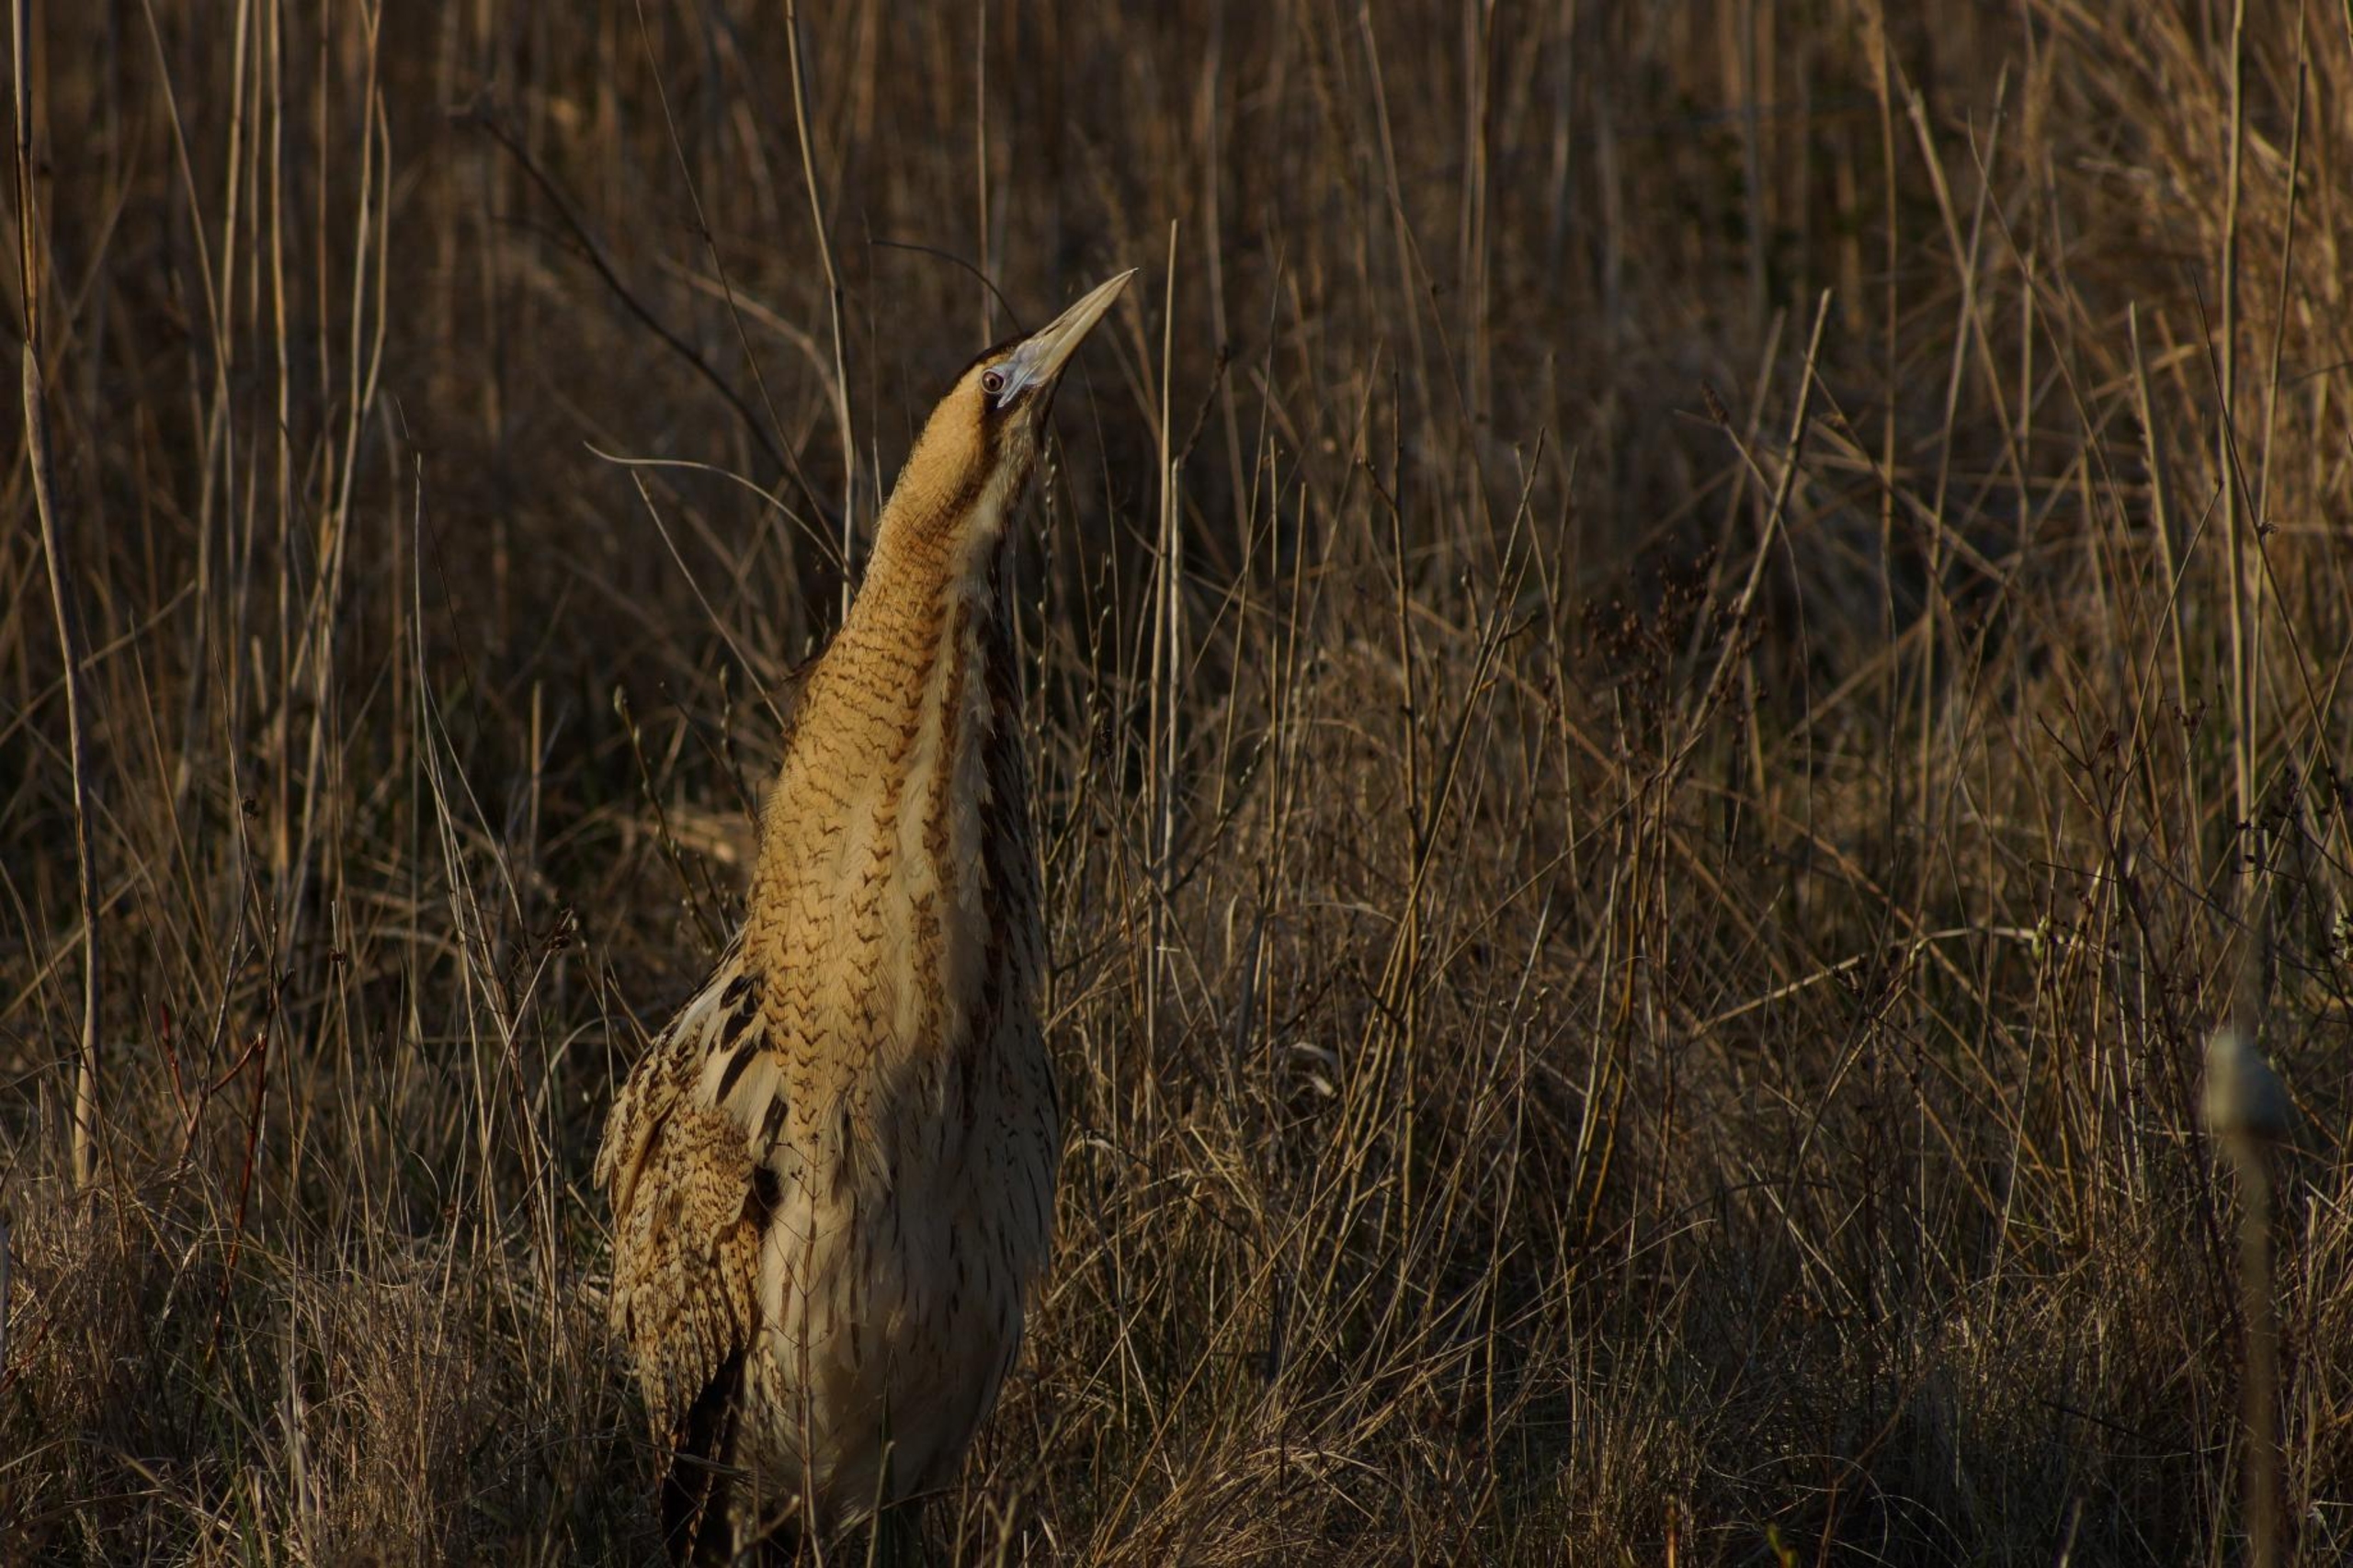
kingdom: Animalia
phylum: Chordata
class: Aves
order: Pelecaniformes
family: Ardeidae
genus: Botaurus
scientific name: Botaurus stellaris
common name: Rørdrum
